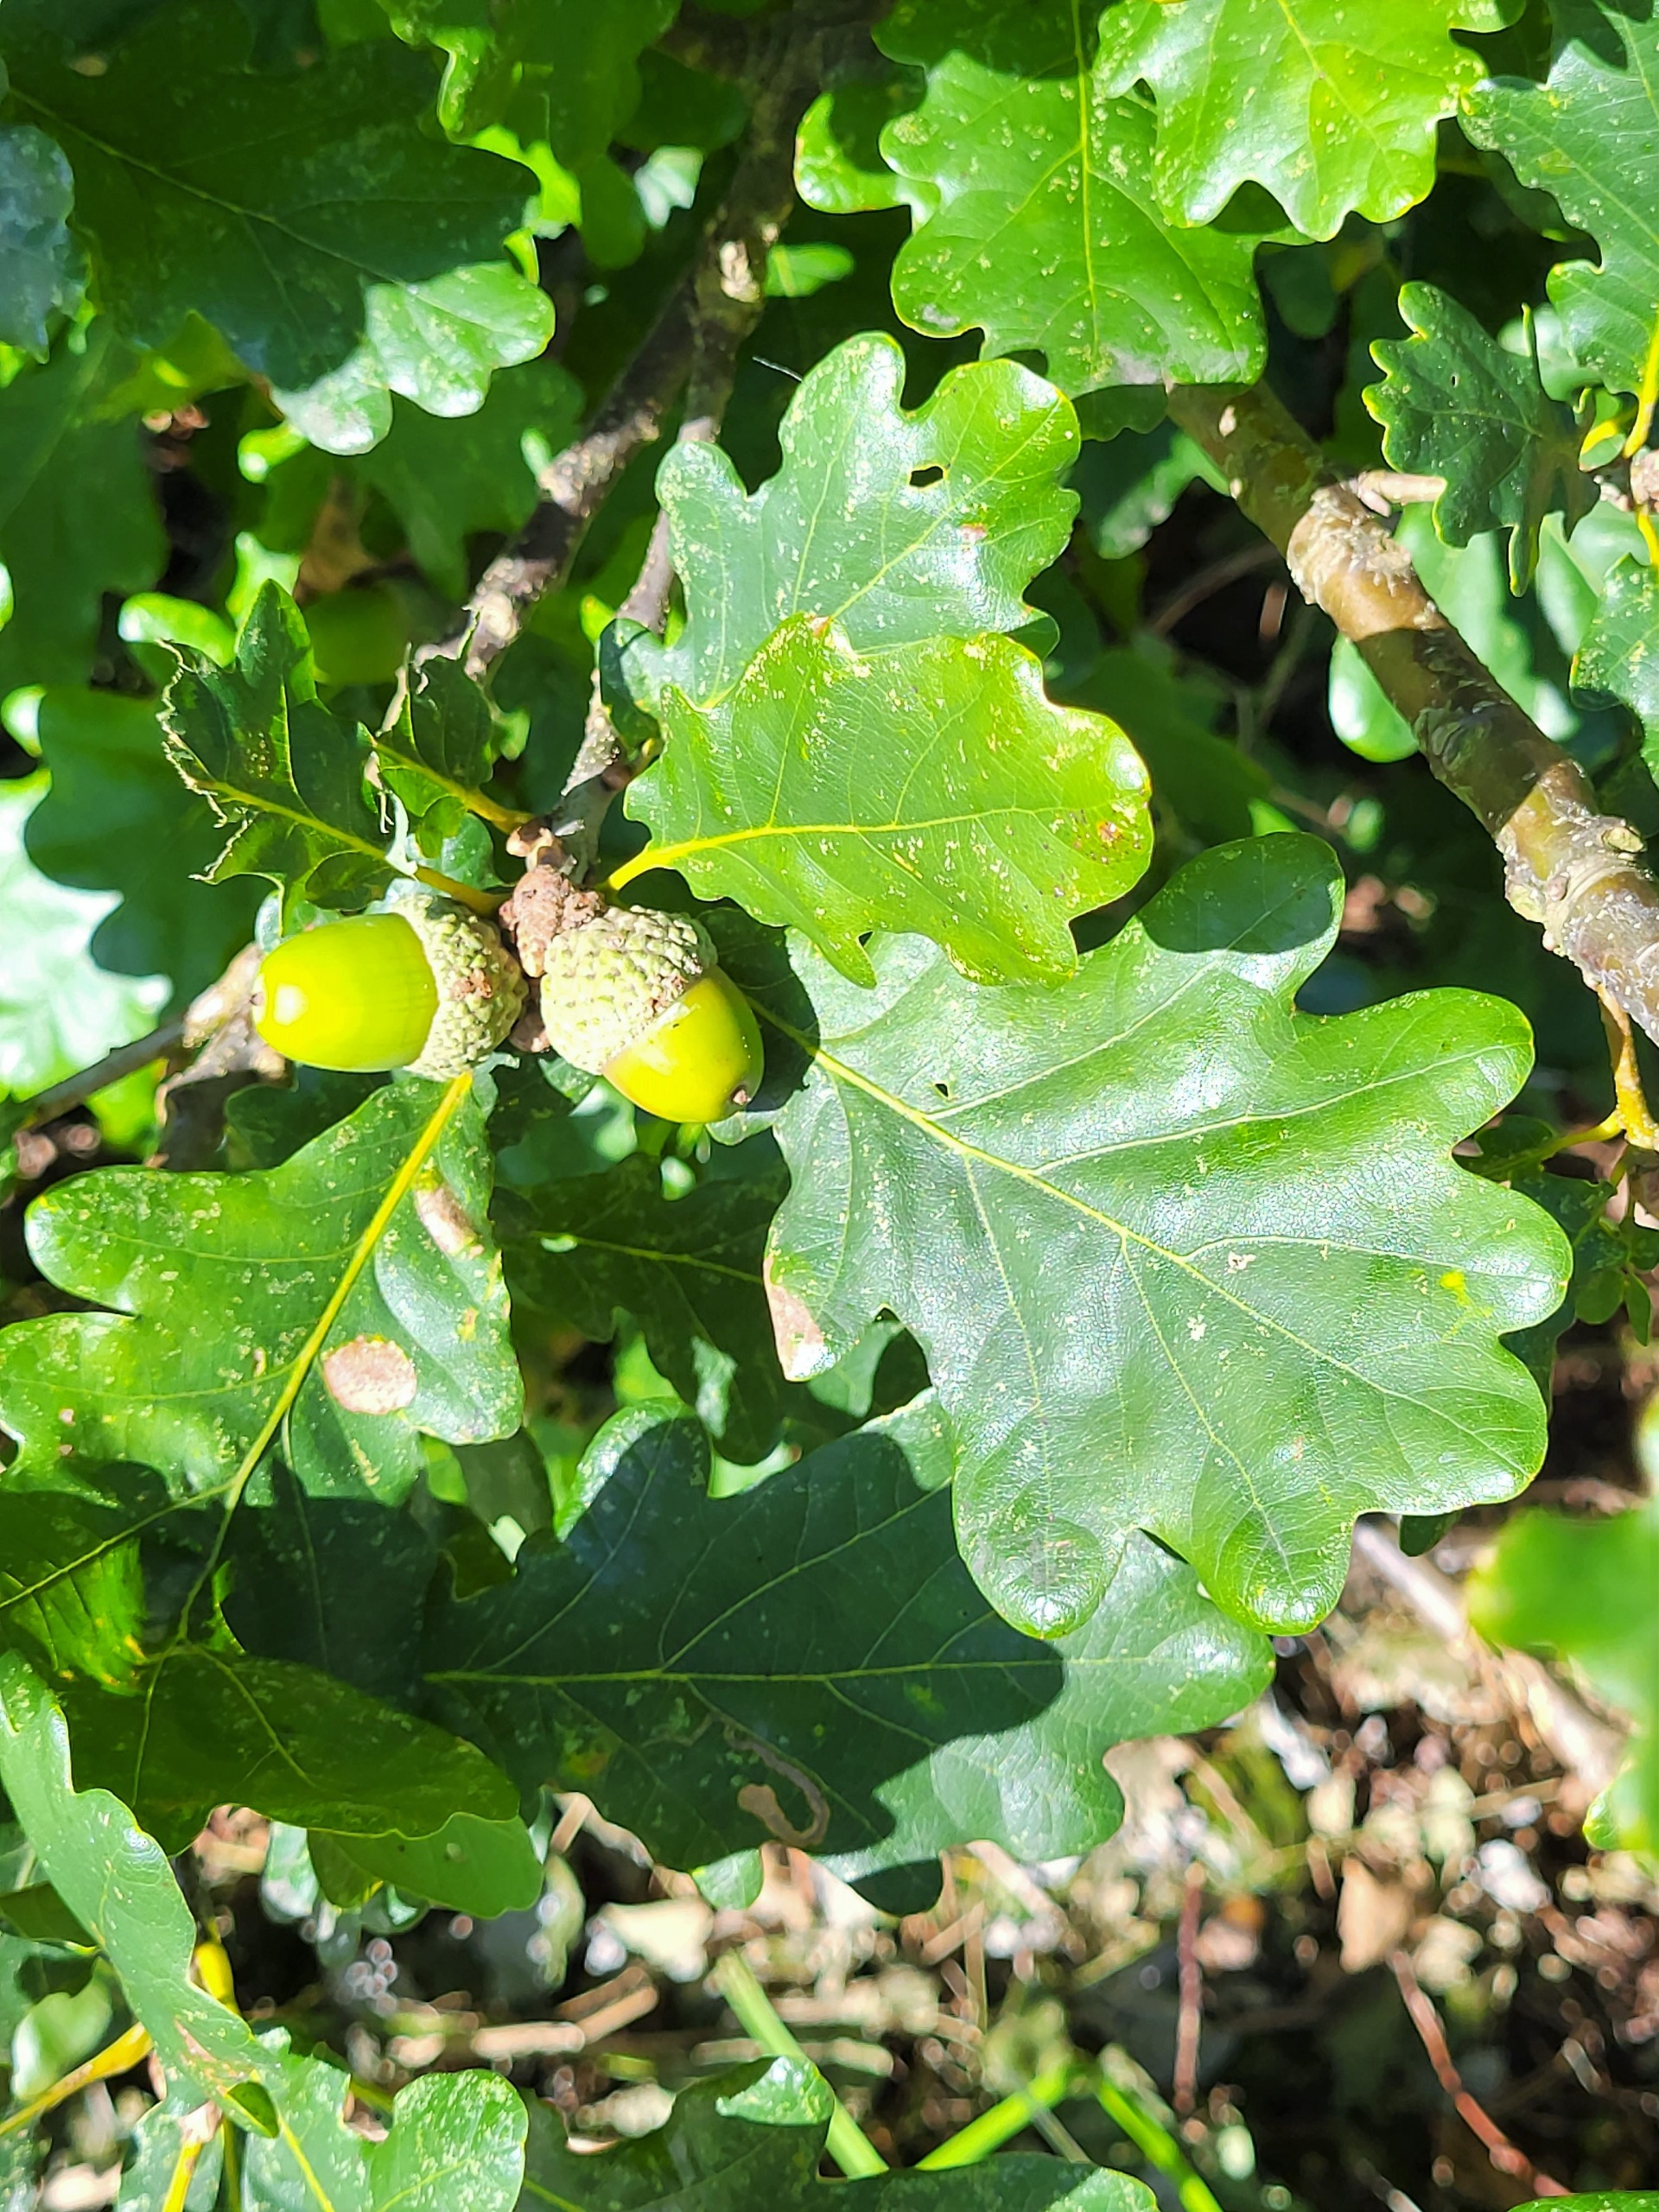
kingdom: Plantae
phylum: Tracheophyta
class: Magnoliopsida
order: Fagales
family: Fagaceae
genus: Quercus
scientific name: Quercus robur
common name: Stilk-eg/almindelig eg
